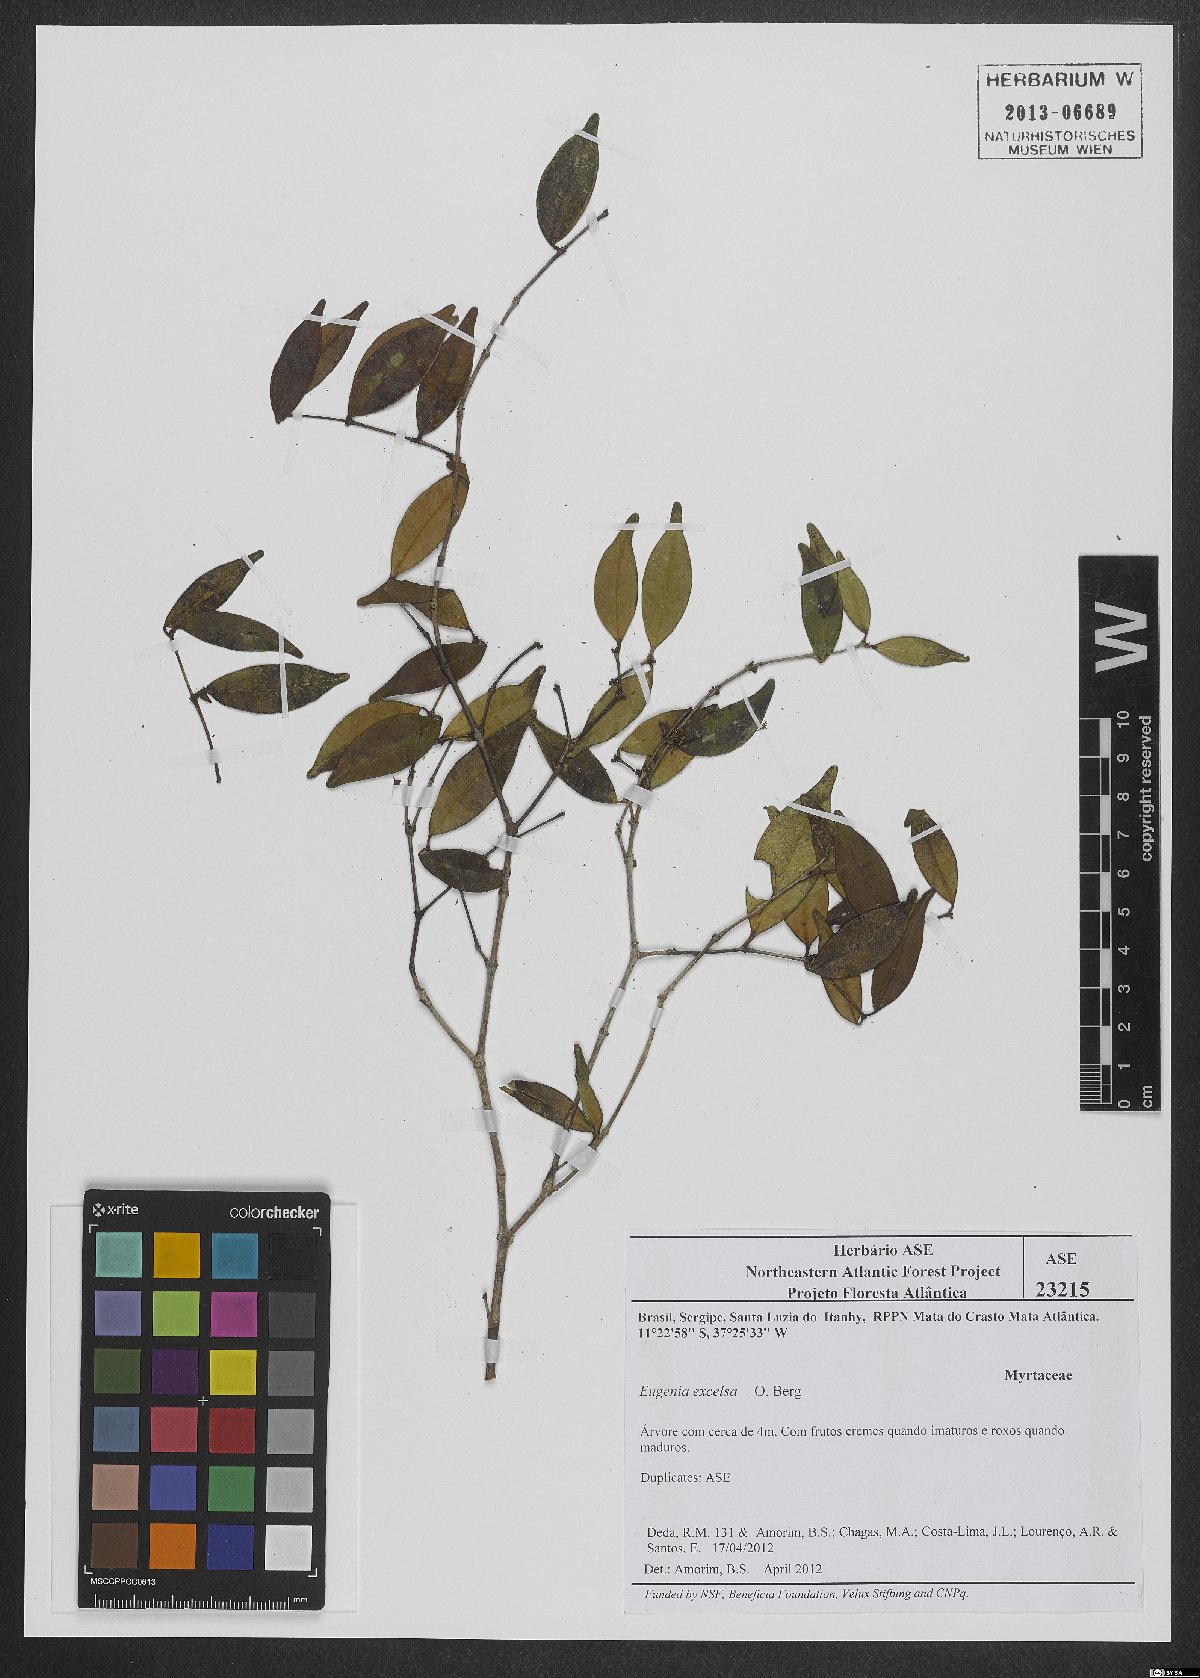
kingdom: Plantae
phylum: Tracheophyta
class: Magnoliopsida
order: Myrtales
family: Myrtaceae
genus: Eugenia
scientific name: Eugenia excelsa
